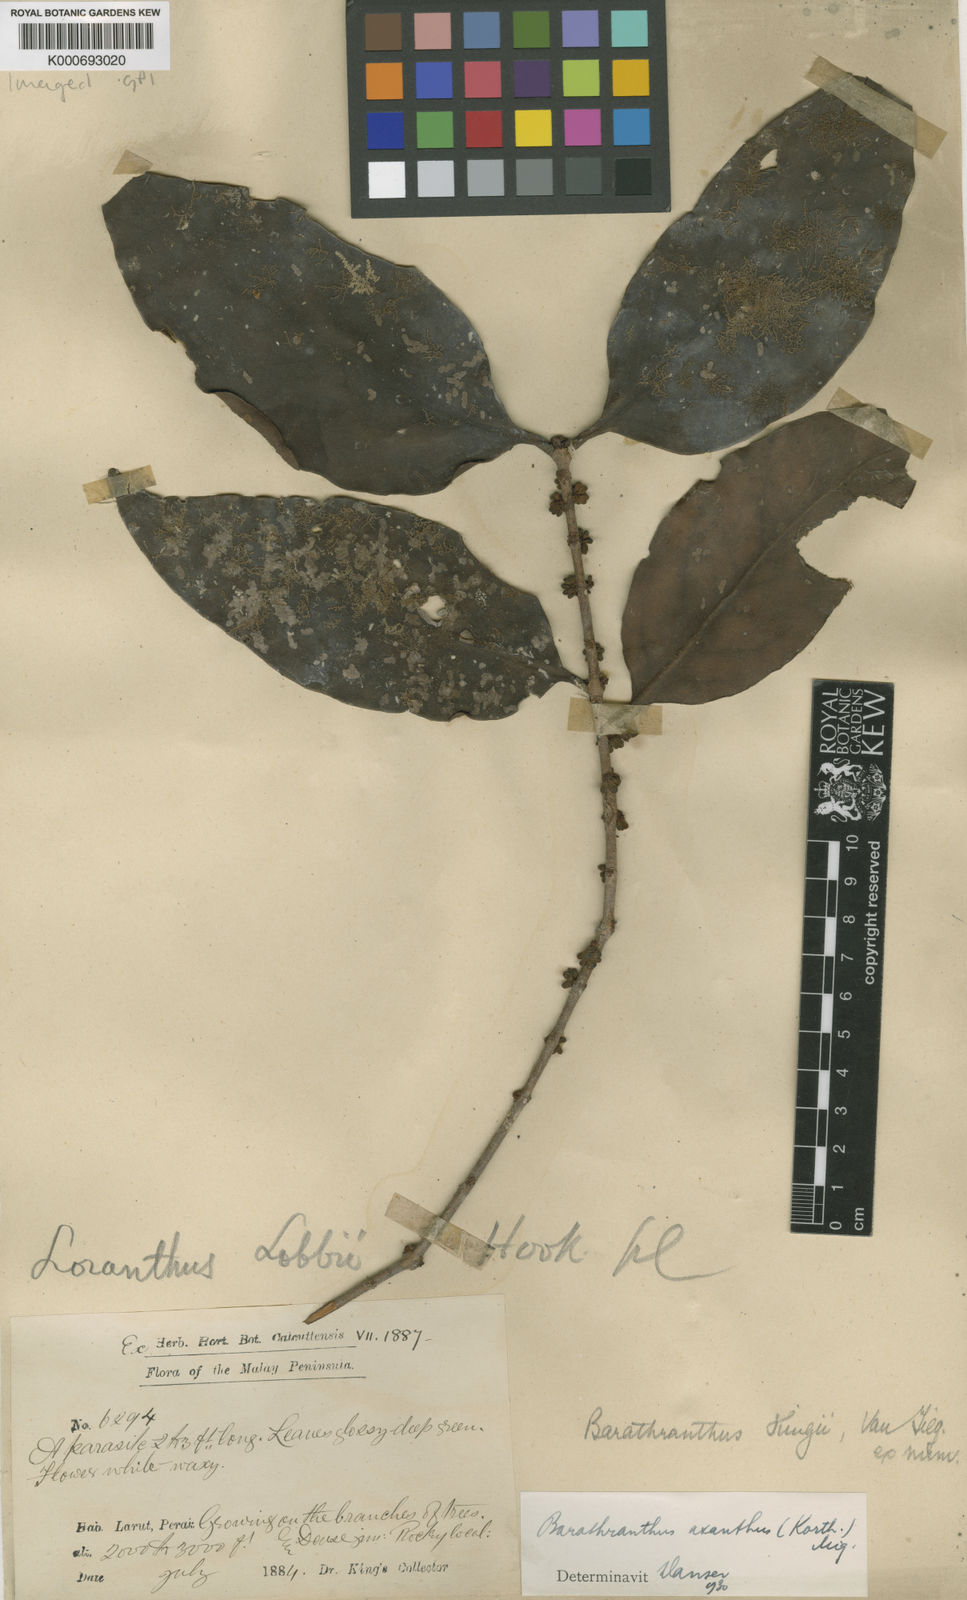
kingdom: Plantae
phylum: Tracheophyta
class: Magnoliopsida
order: Santalales
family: Loranthaceae
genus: Barathranthus
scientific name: Barathranthus axanthus
